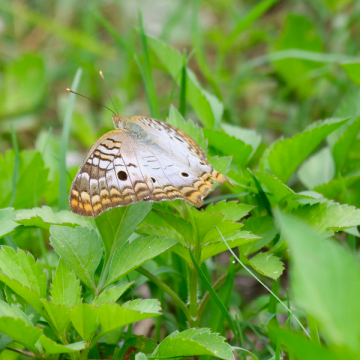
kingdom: Animalia
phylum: Arthropoda
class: Insecta
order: Lepidoptera
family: Nymphalidae
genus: Anartia
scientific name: Anartia jatrophae
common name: White Peacock
